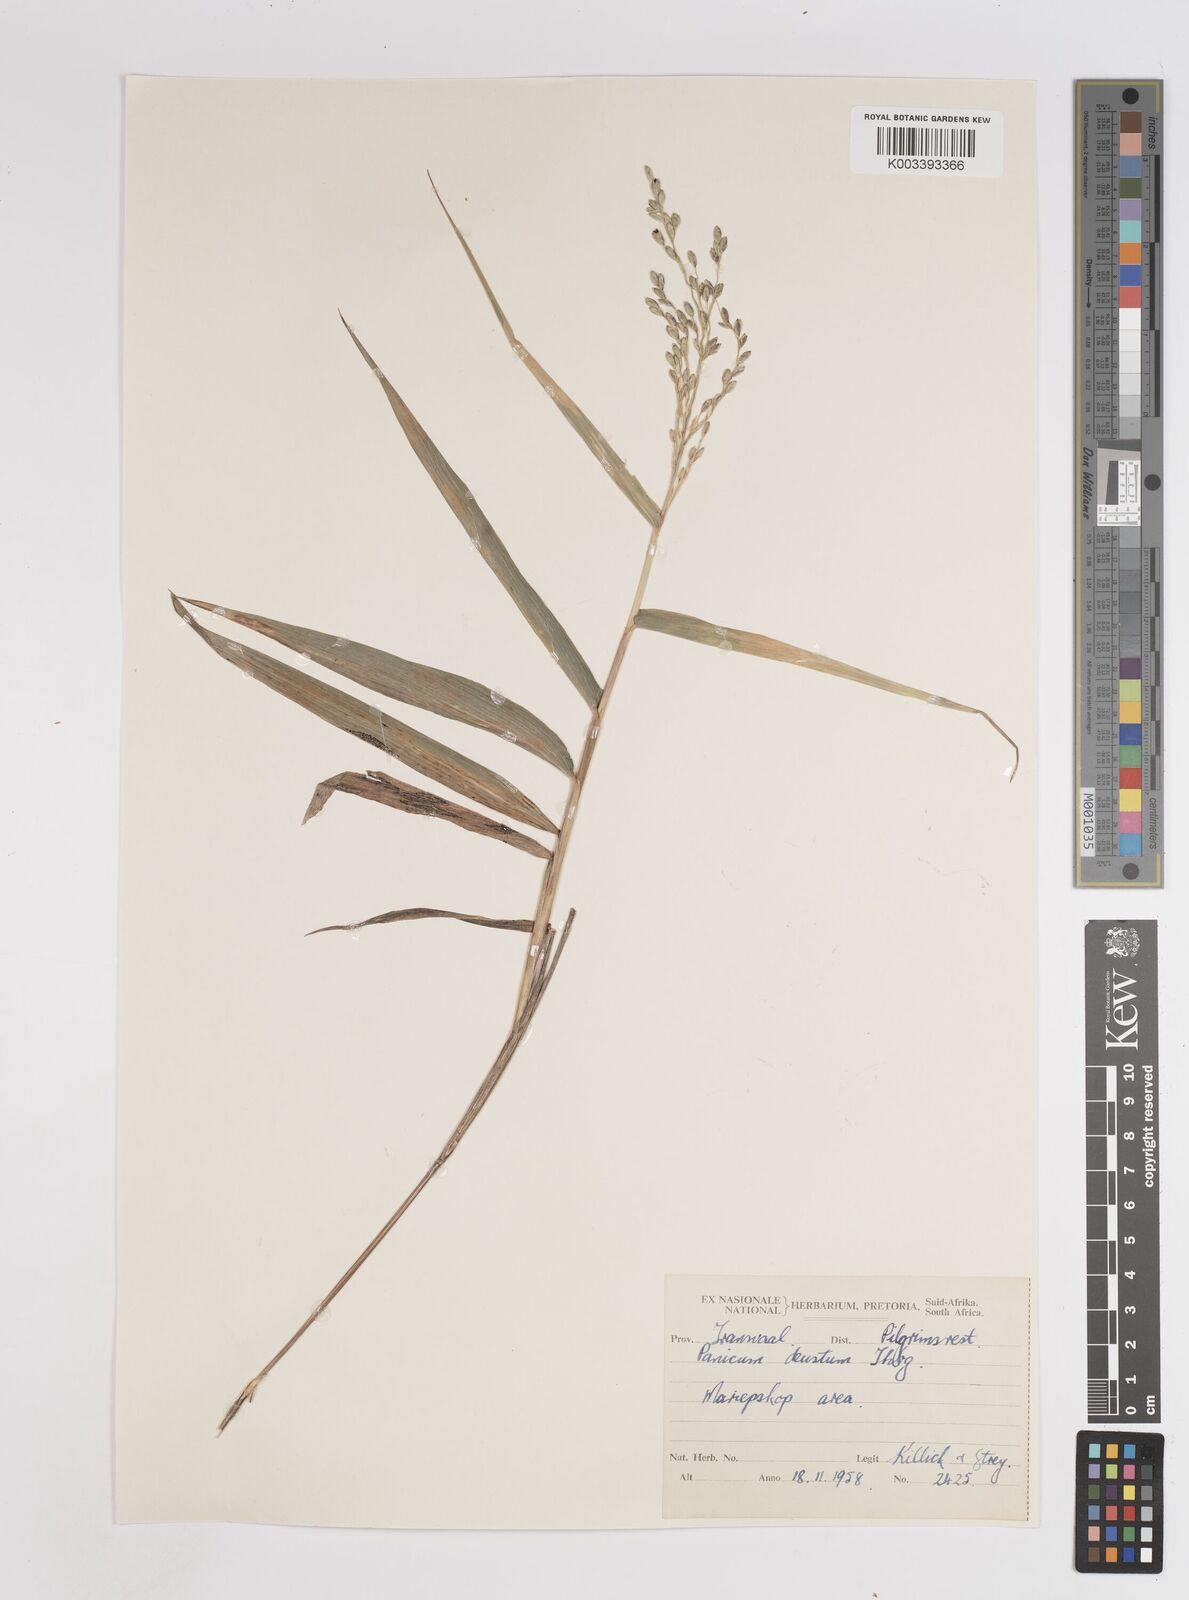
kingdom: Plantae
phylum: Tracheophyta
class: Liliopsida
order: Poales
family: Poaceae
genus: Panicum
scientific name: Panicum deustum
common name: Reed panicum
